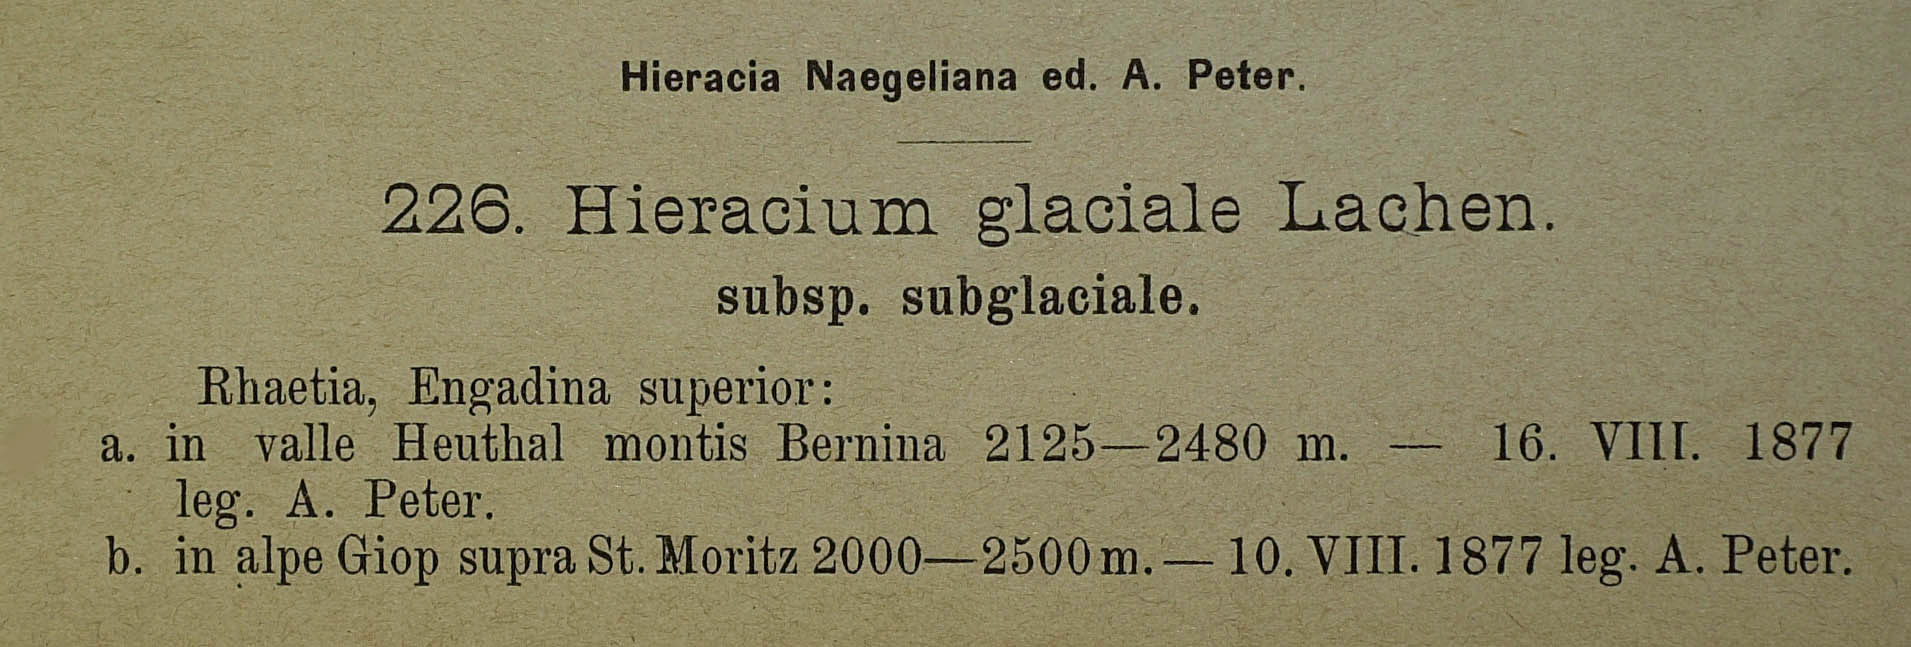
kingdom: Plantae
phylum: Tracheophyta
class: Magnoliopsida
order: Asterales
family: Asteraceae
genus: Pilosella
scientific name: Pilosella glacialis
